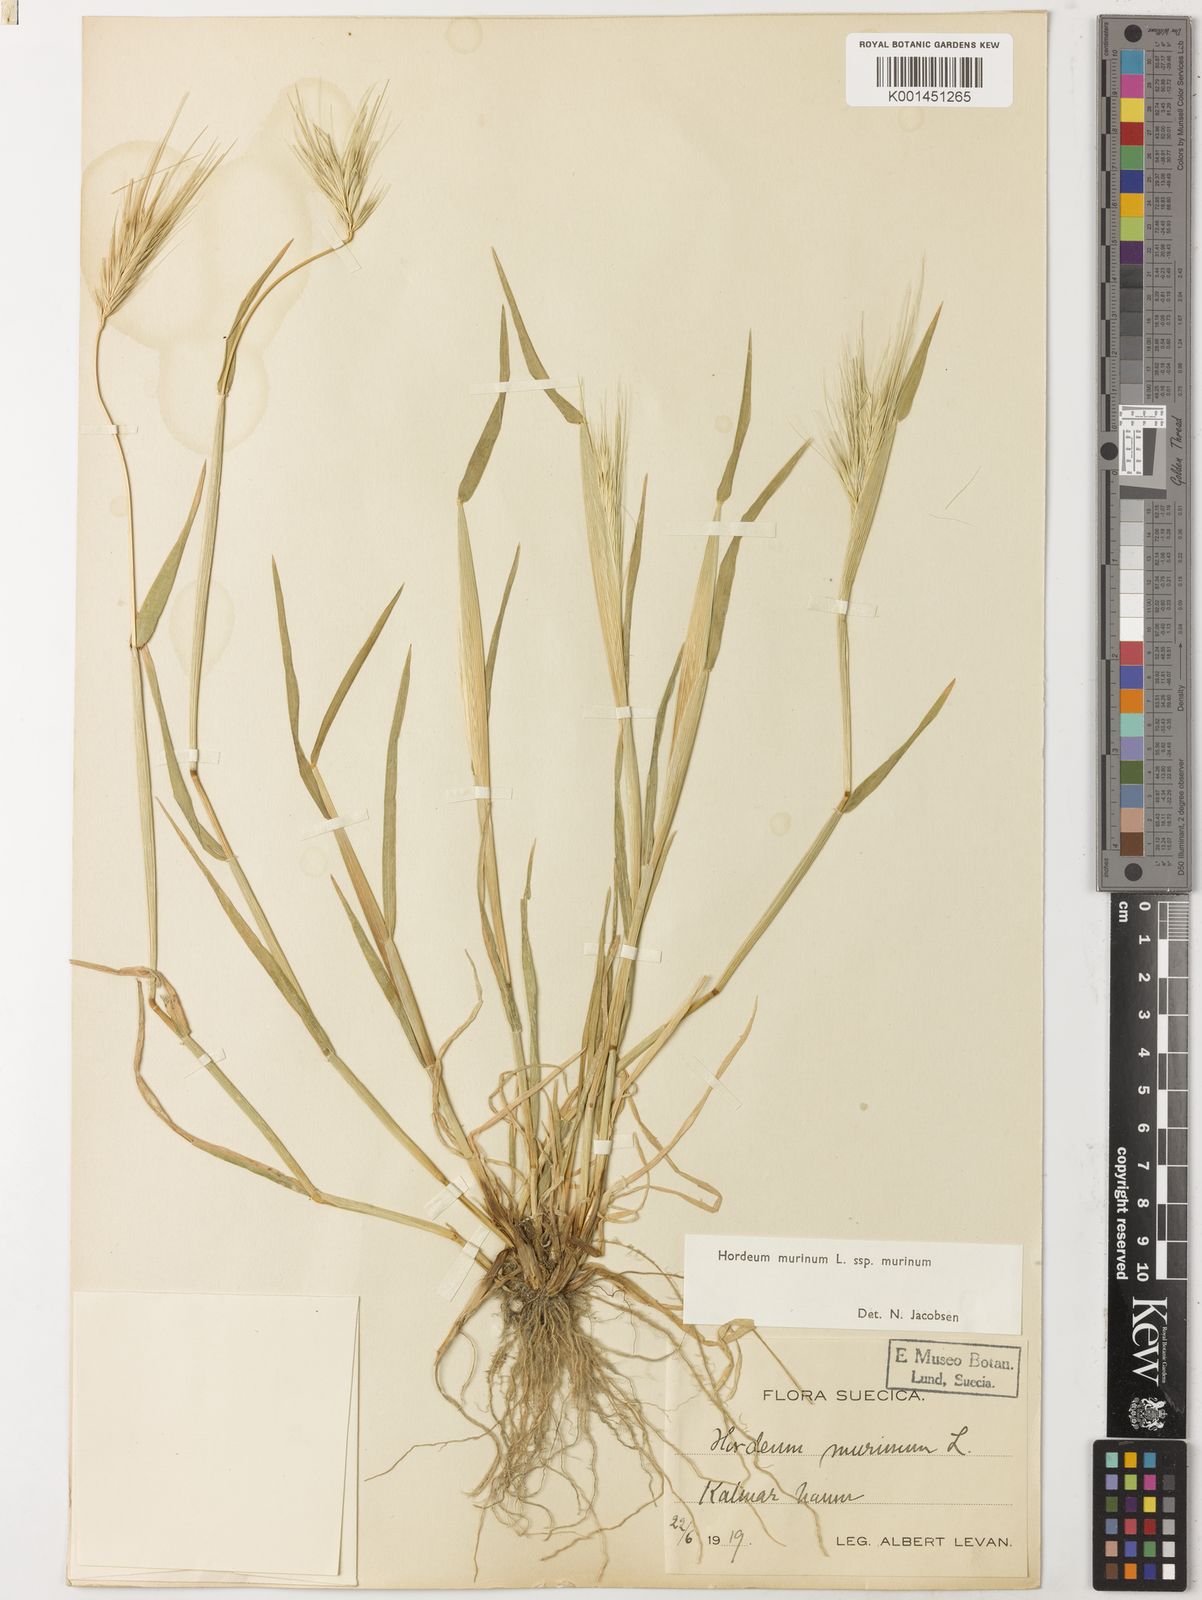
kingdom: Plantae
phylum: Tracheophyta
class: Liliopsida
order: Poales
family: Poaceae
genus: Hordeum
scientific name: Hordeum murinum
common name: Wall barley
